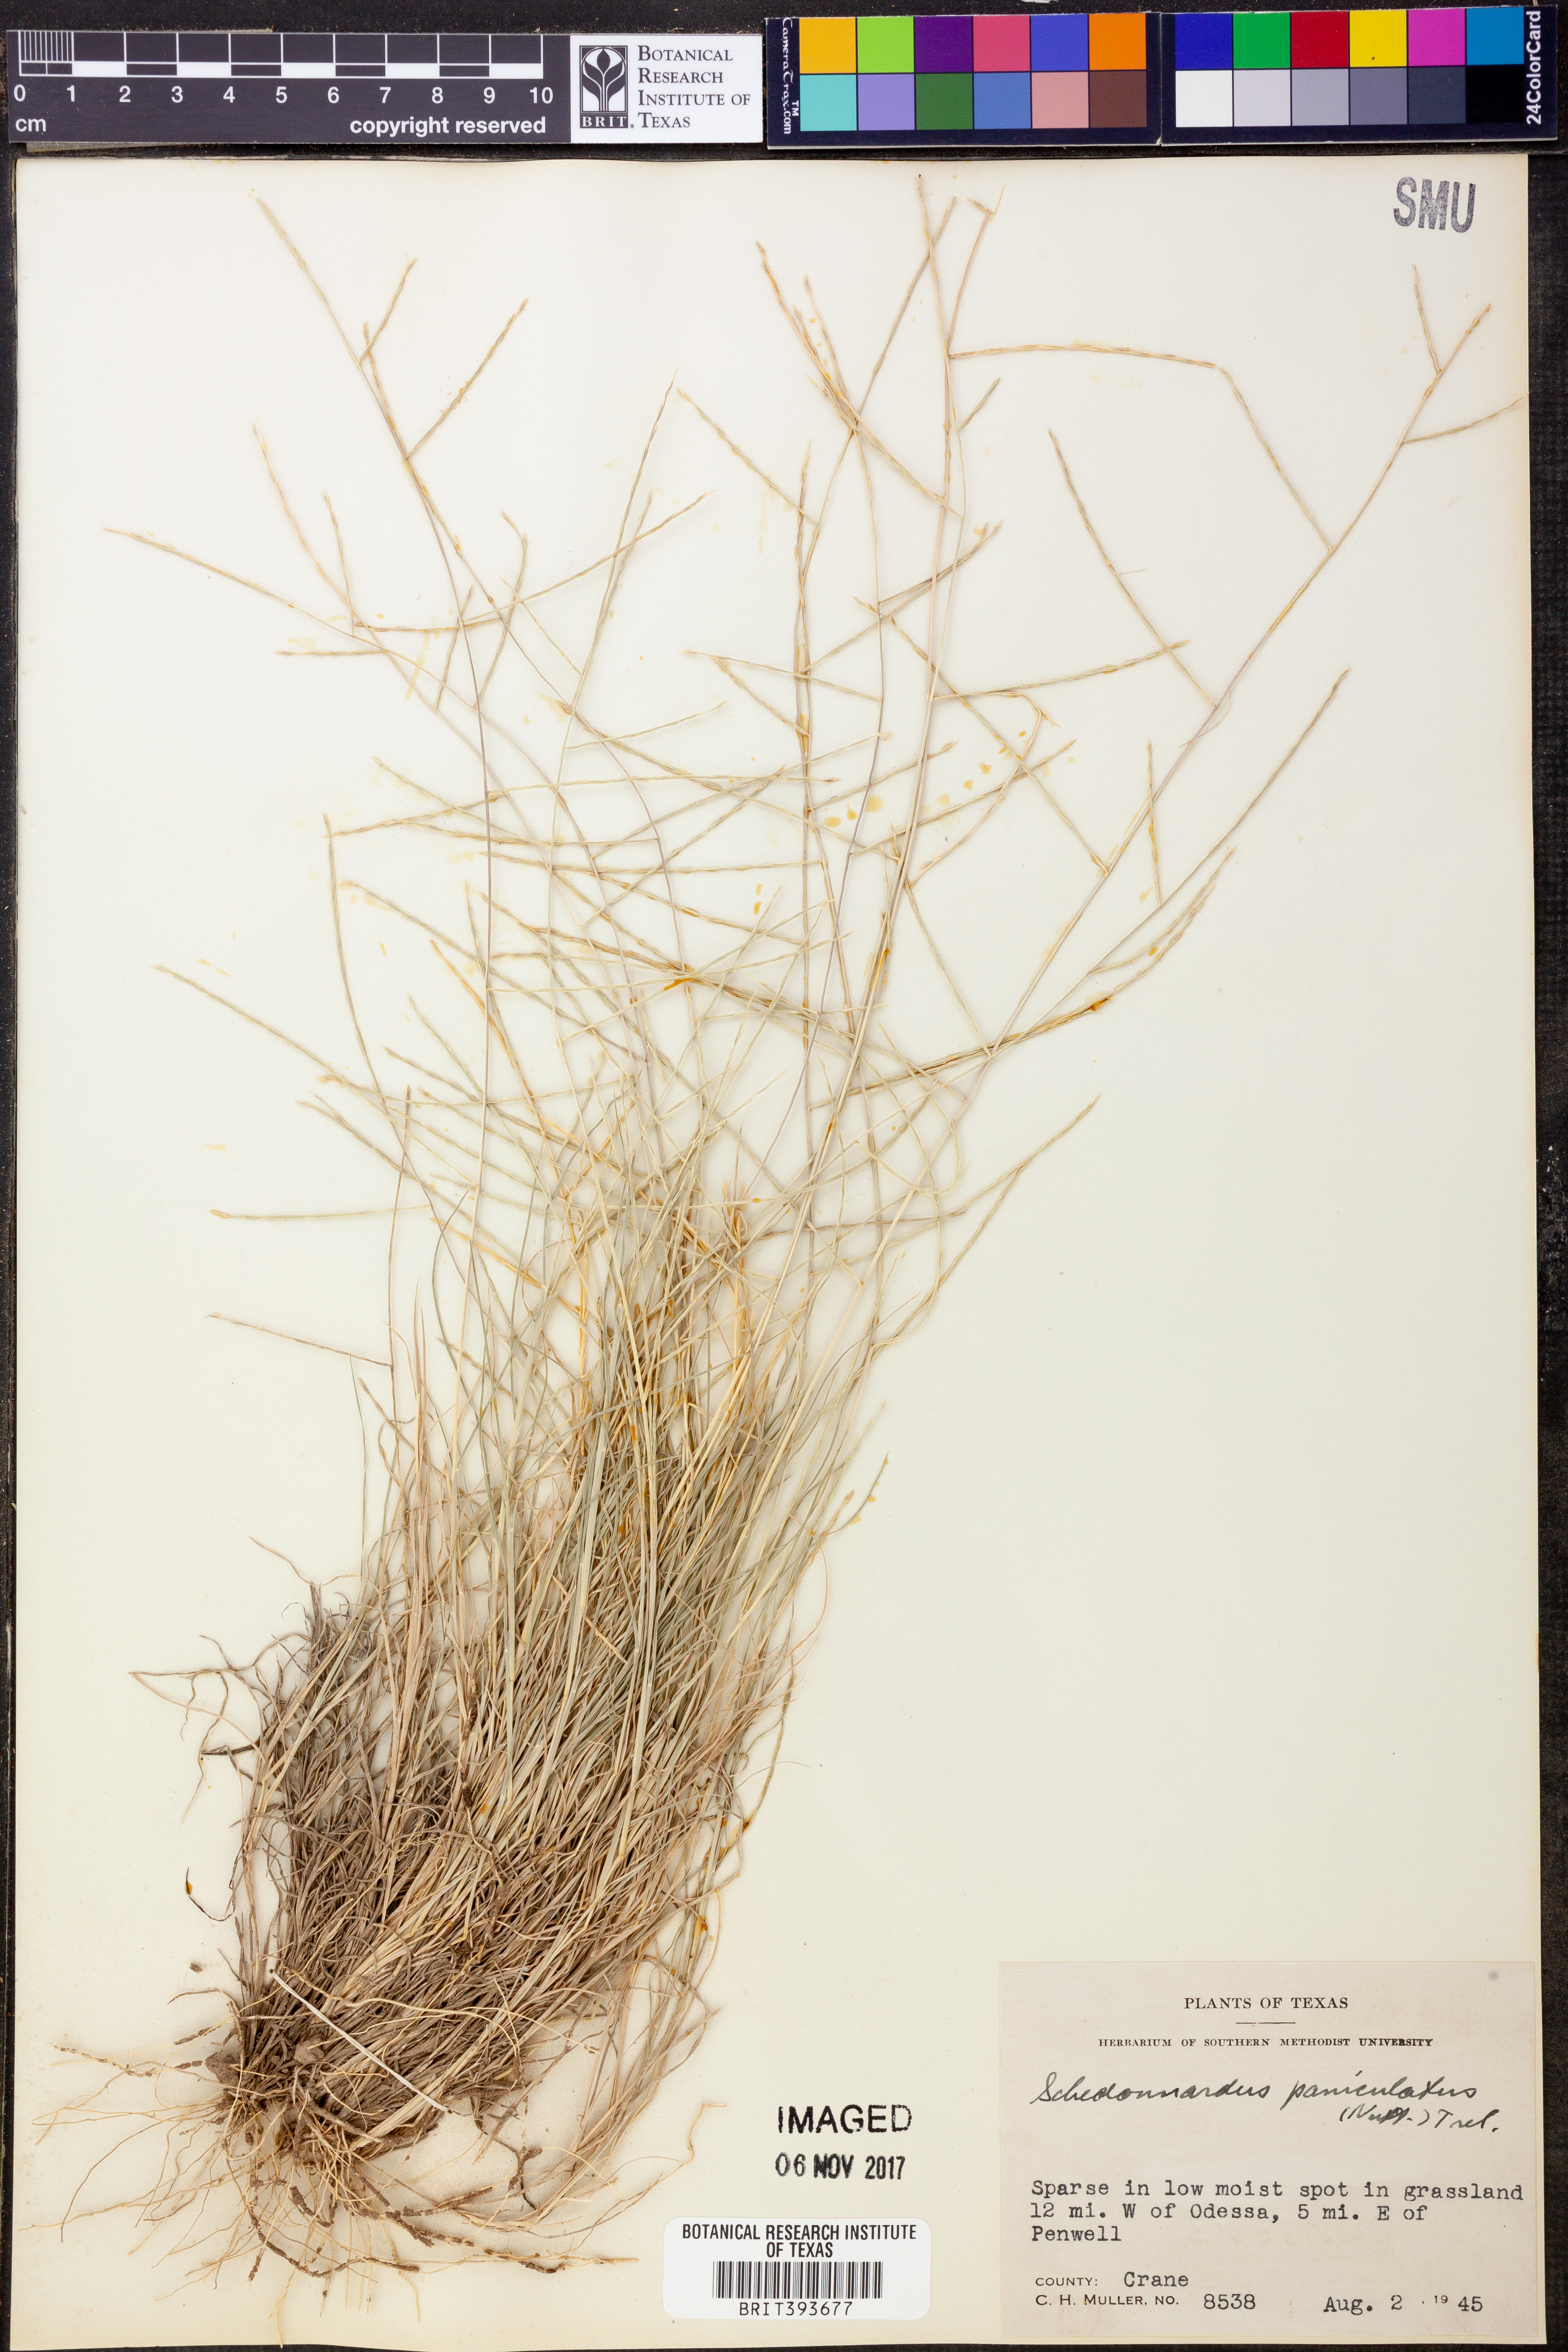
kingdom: Plantae
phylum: Tracheophyta
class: Liliopsida
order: Poales
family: Poaceae
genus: Muhlenbergia
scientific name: Muhlenbergia paniculata
